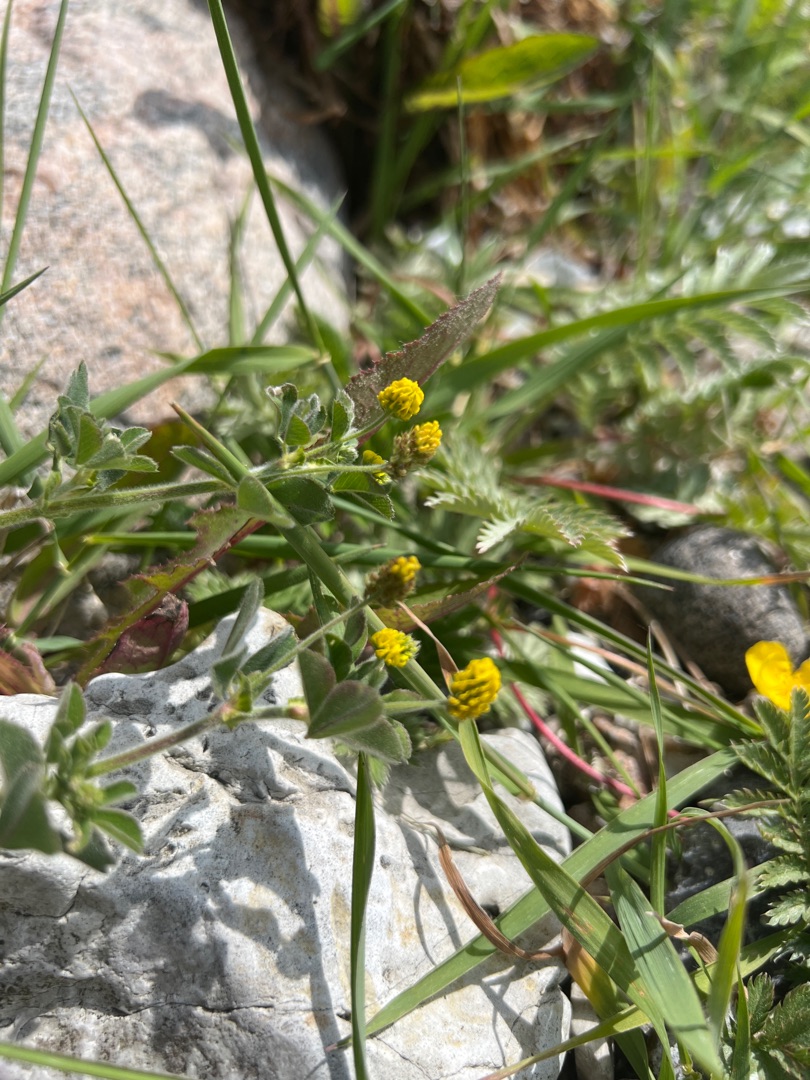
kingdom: Plantae
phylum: Tracheophyta
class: Magnoliopsida
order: Fabales
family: Fabaceae
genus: Medicago
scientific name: Medicago lupulina
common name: Humle-sneglebælg
